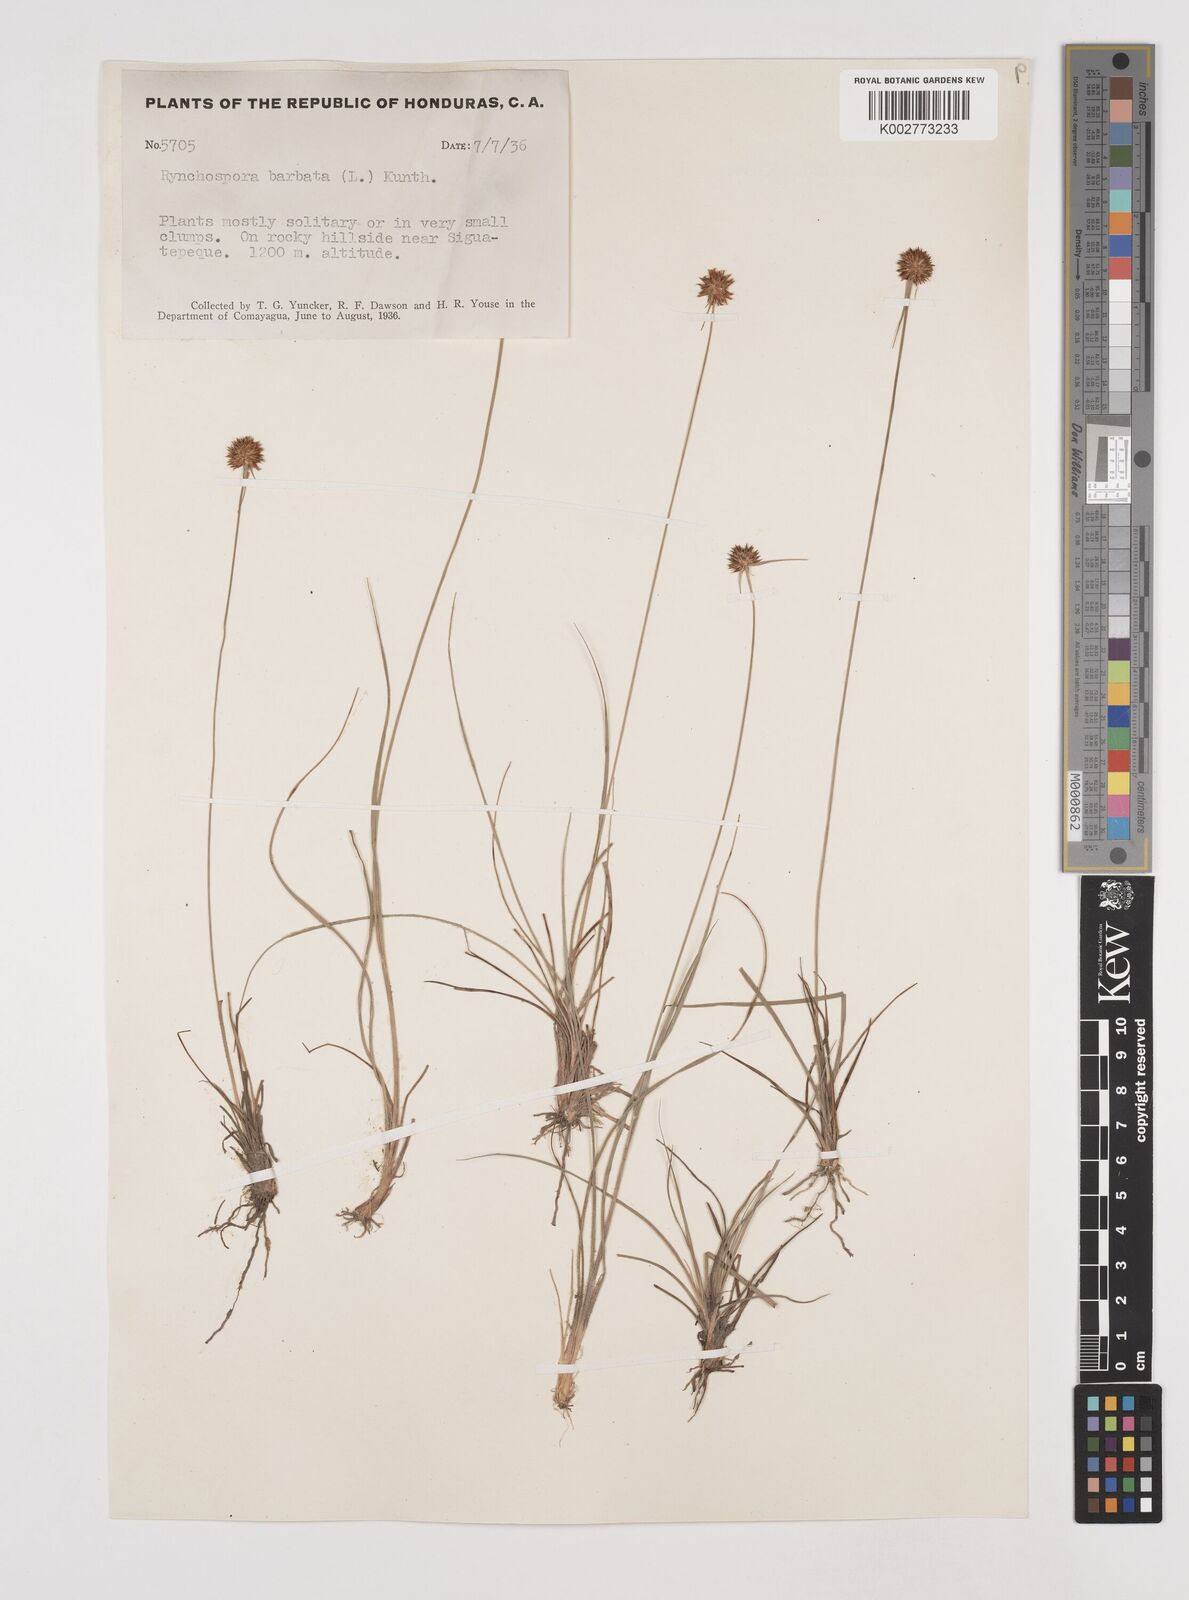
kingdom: Plantae
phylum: Tracheophyta
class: Liliopsida
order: Poales
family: Cyperaceae
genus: Rhynchospora
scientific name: Rhynchospora barbata
